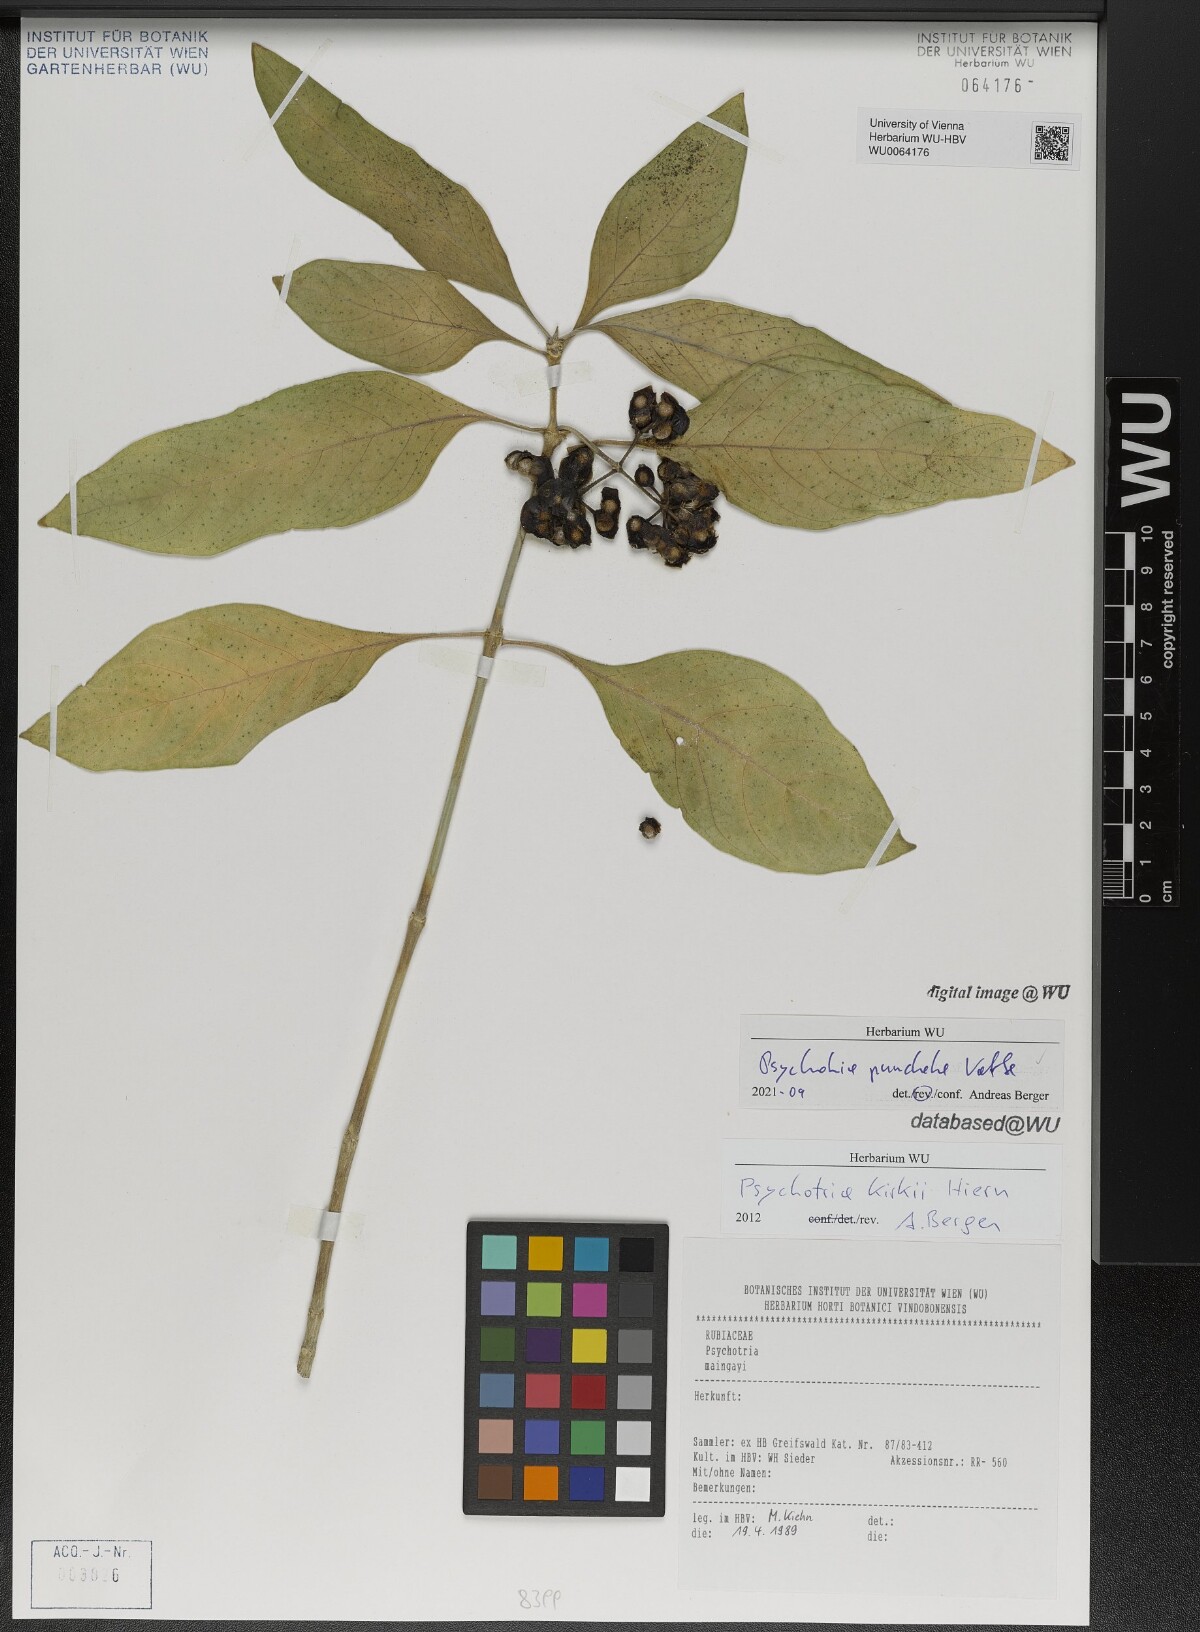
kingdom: Plantae
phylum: Tracheophyta
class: Magnoliopsida
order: Gentianales
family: Rubiaceae
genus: Psychotria
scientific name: Psychotria punctata
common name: Dotted wild coffee
